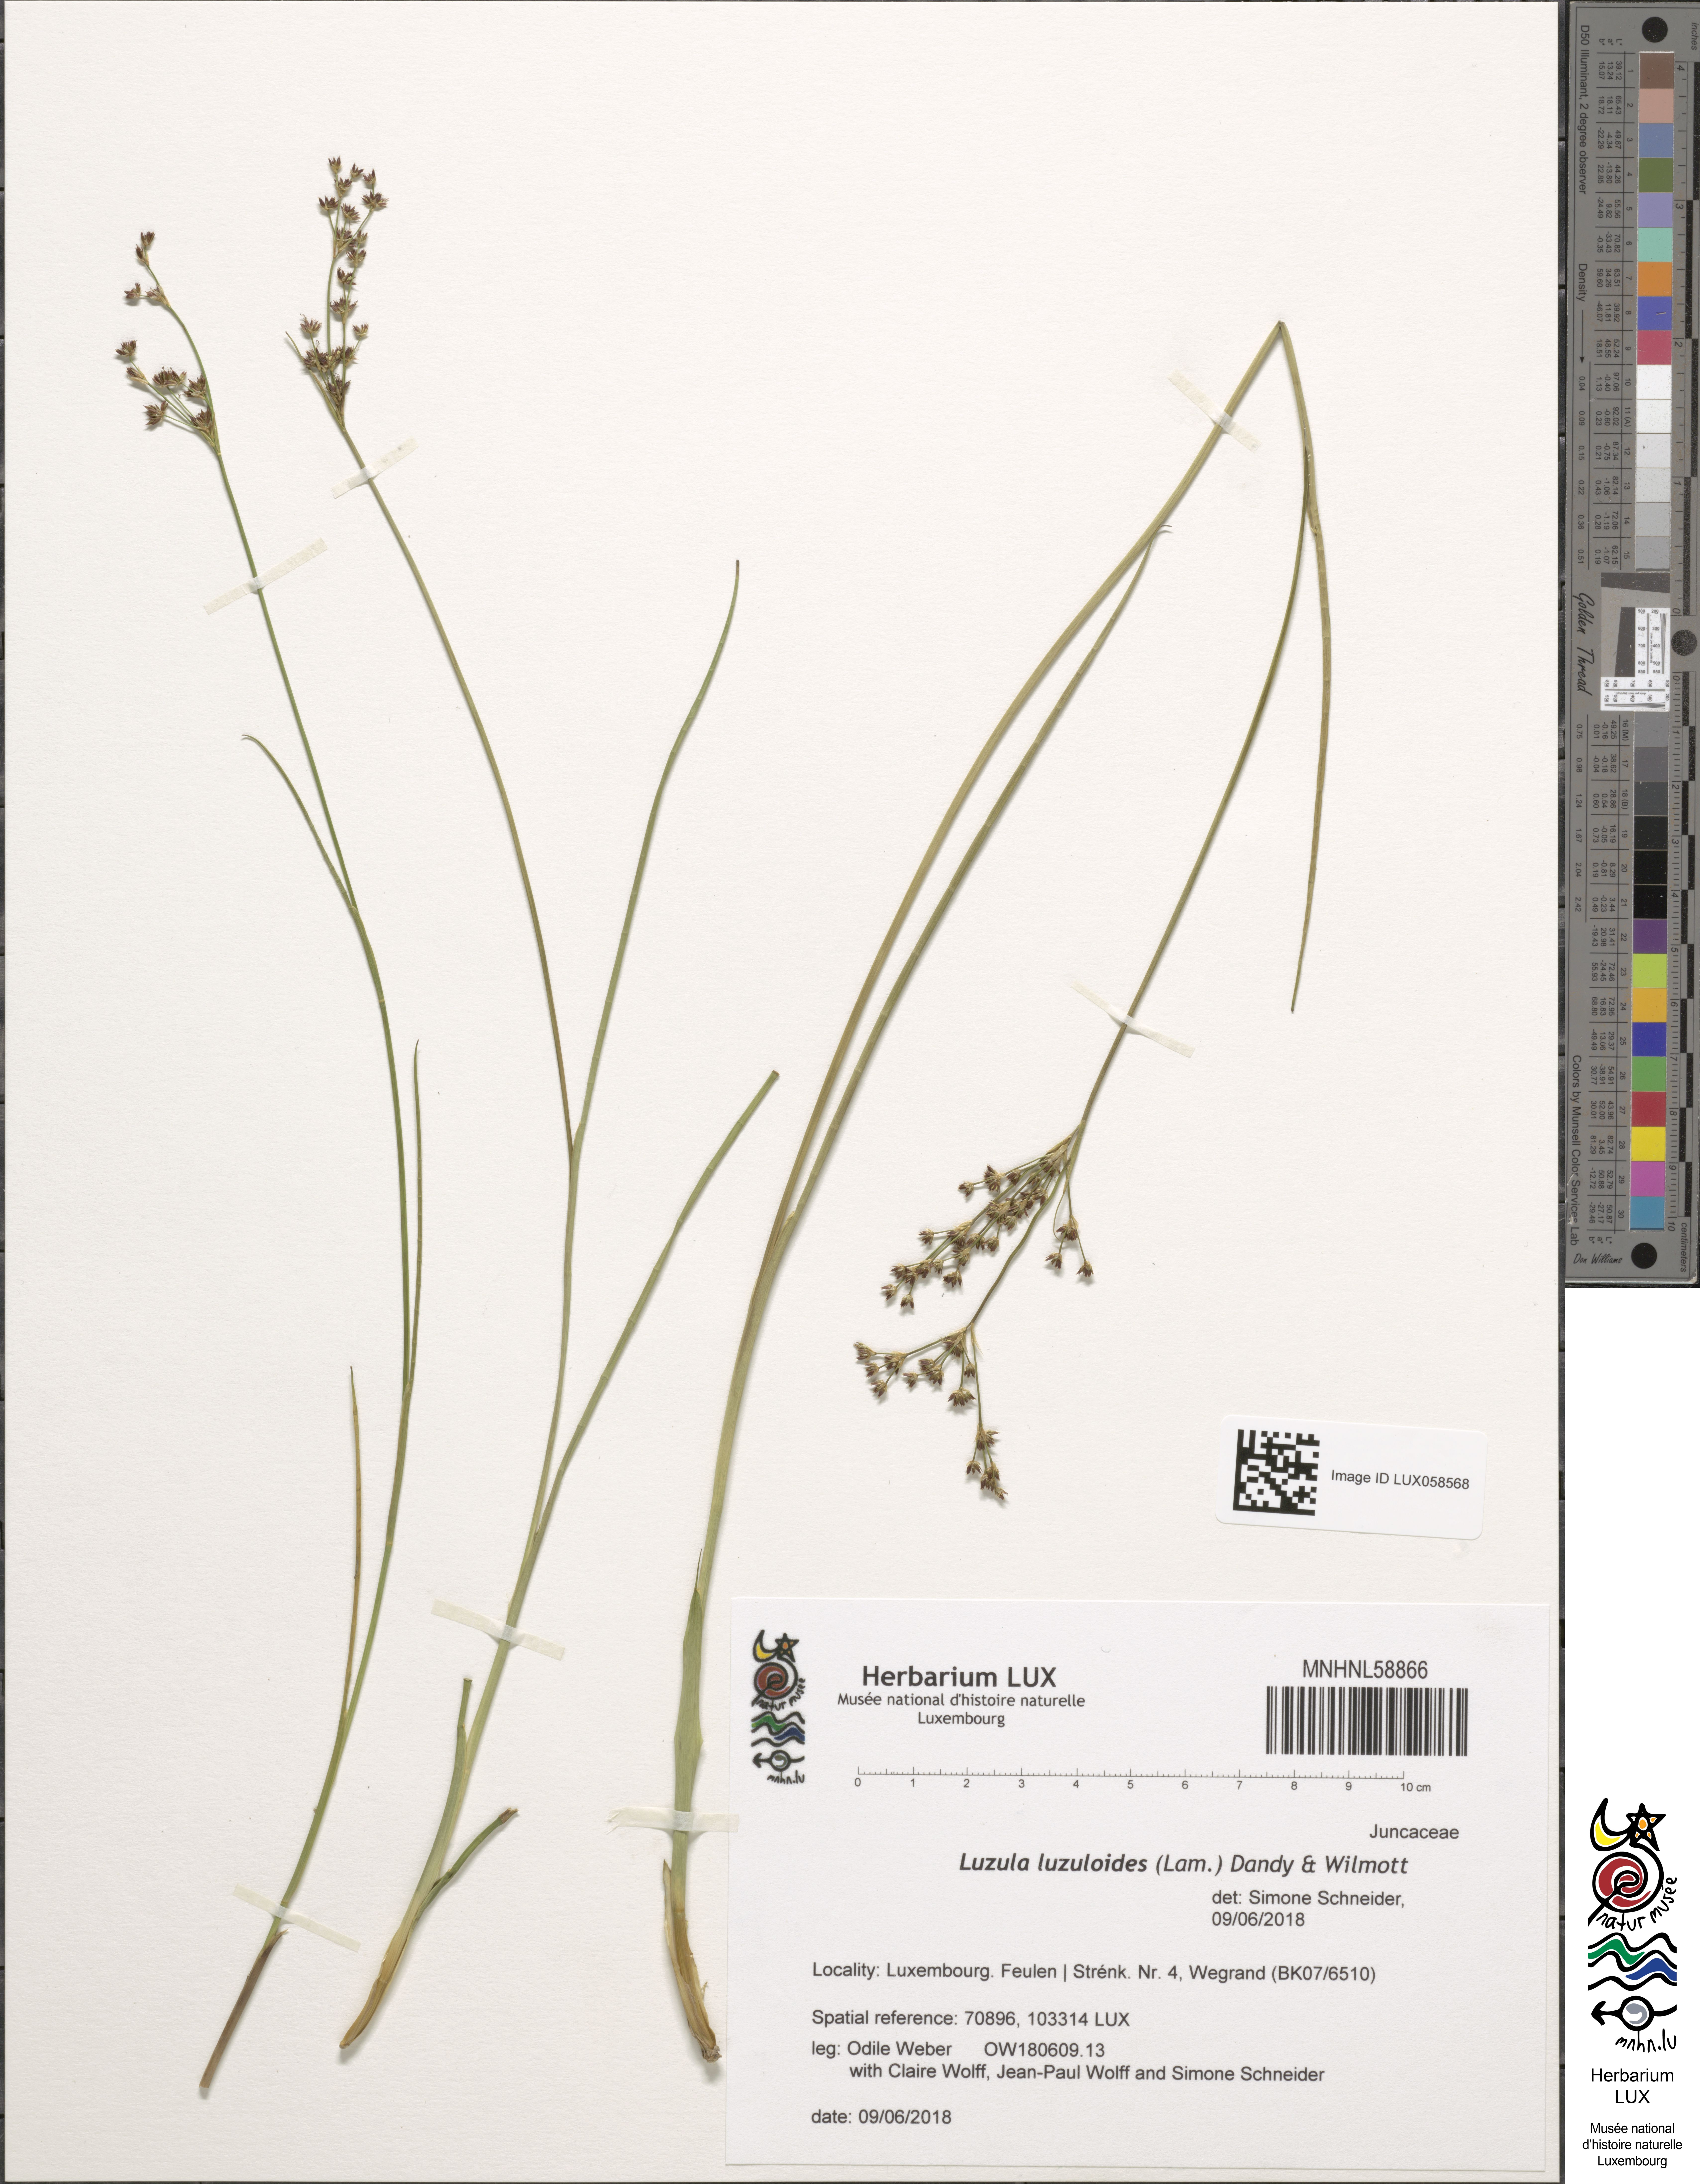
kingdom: Plantae
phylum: Tracheophyta
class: Liliopsida
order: Poales
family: Juncaceae
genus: Luzula
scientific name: Luzula luzuloides
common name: White wood-rush
